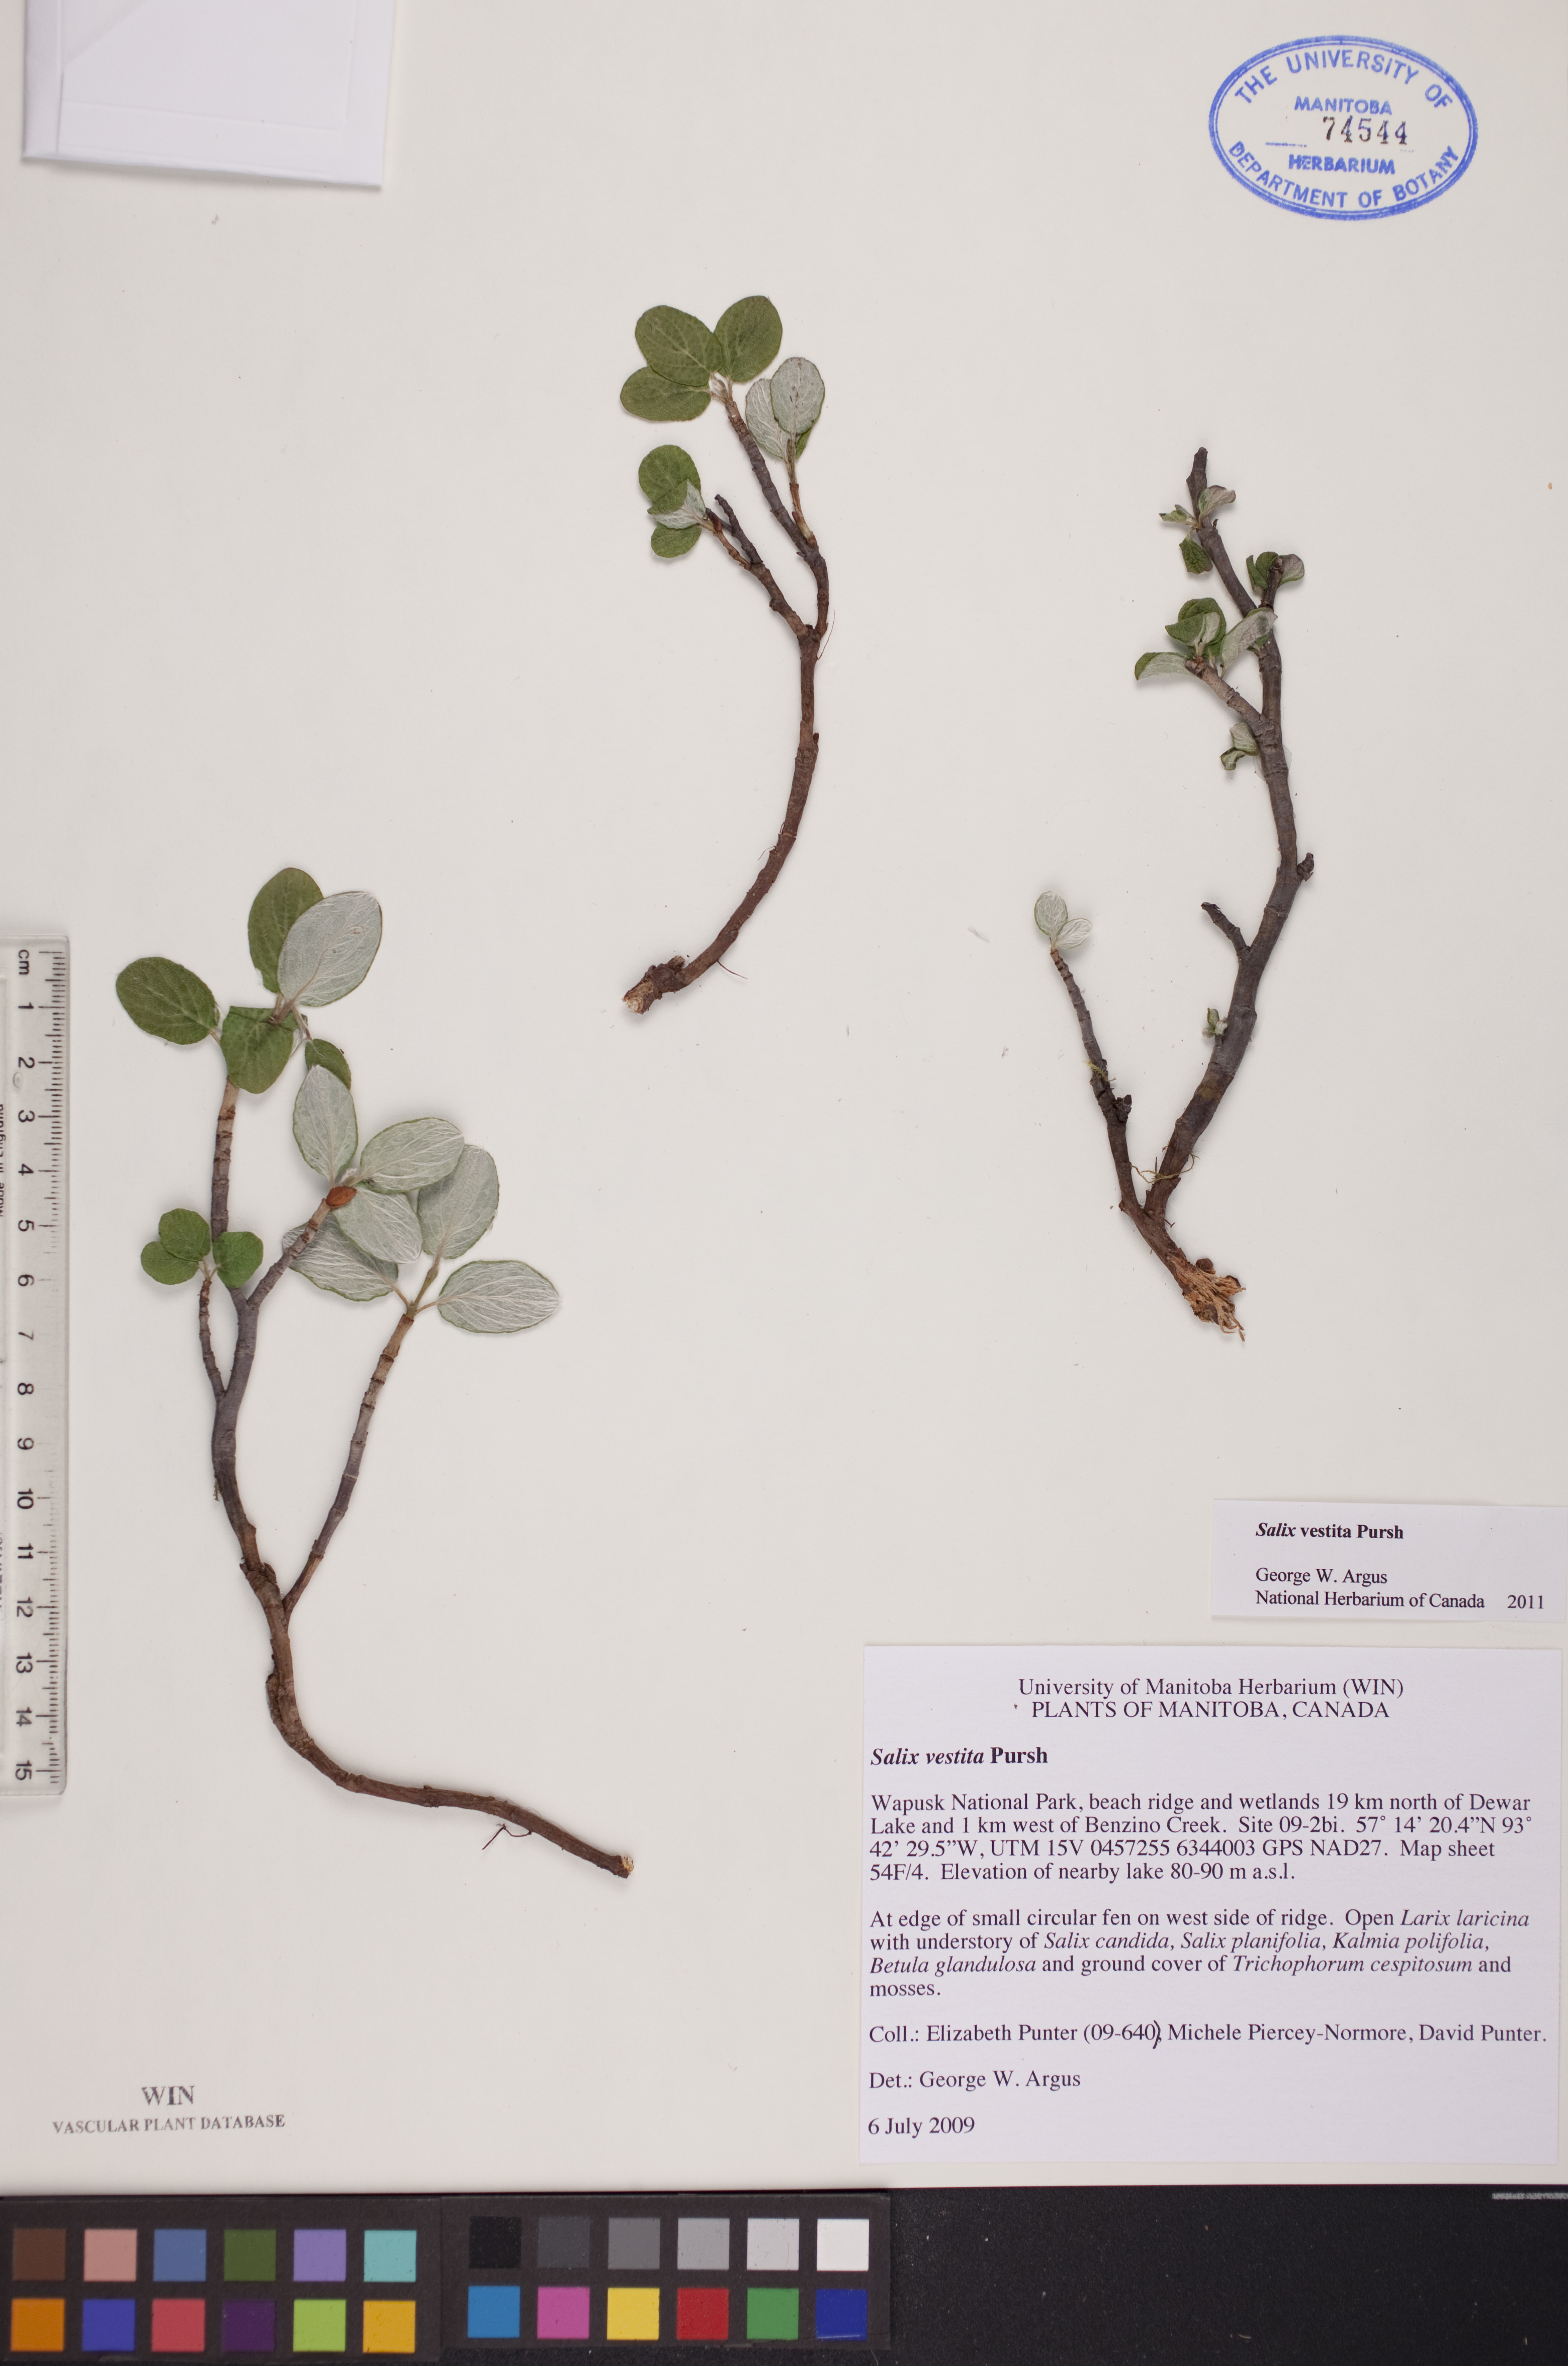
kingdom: Plantae
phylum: Tracheophyta
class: Magnoliopsida
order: Malpighiales
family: Salicaceae
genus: Salix
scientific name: Salix vestita
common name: Hairy willow
